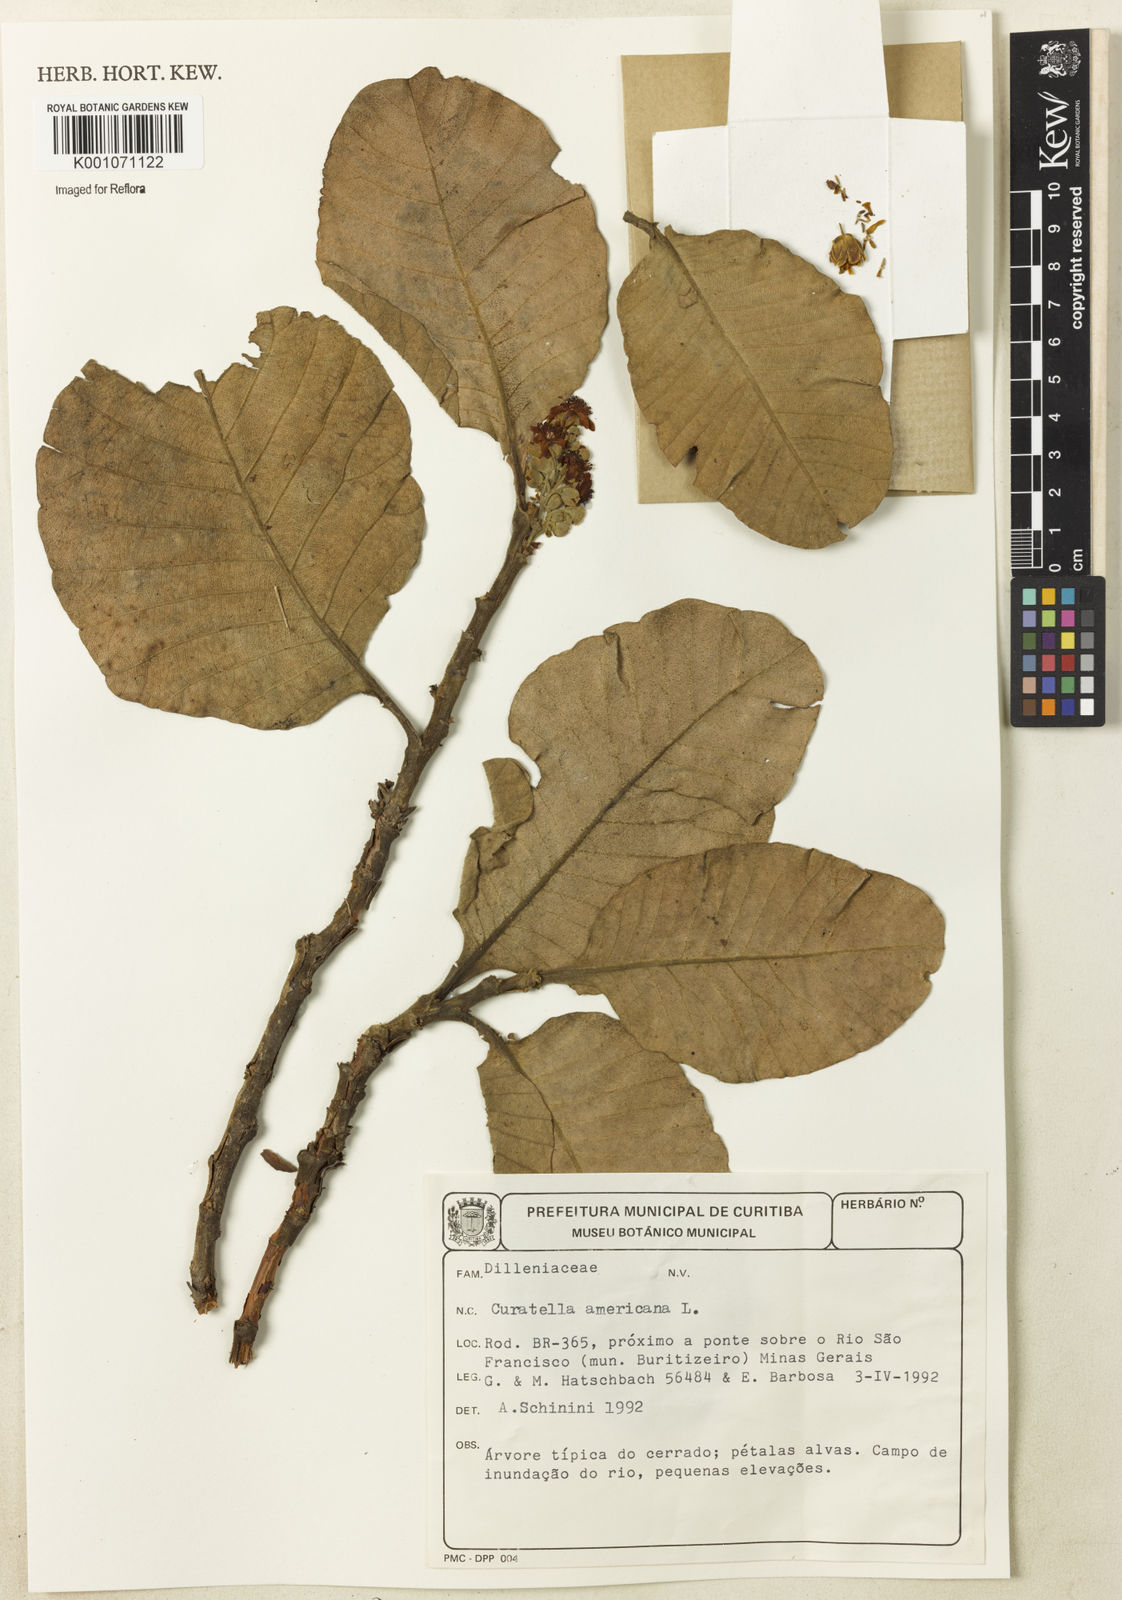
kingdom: Plantae
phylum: Tracheophyta
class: Magnoliopsida
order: Dilleniales
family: Dilleniaceae
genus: Curatella
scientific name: Curatella americana
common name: Sandpaper tree
